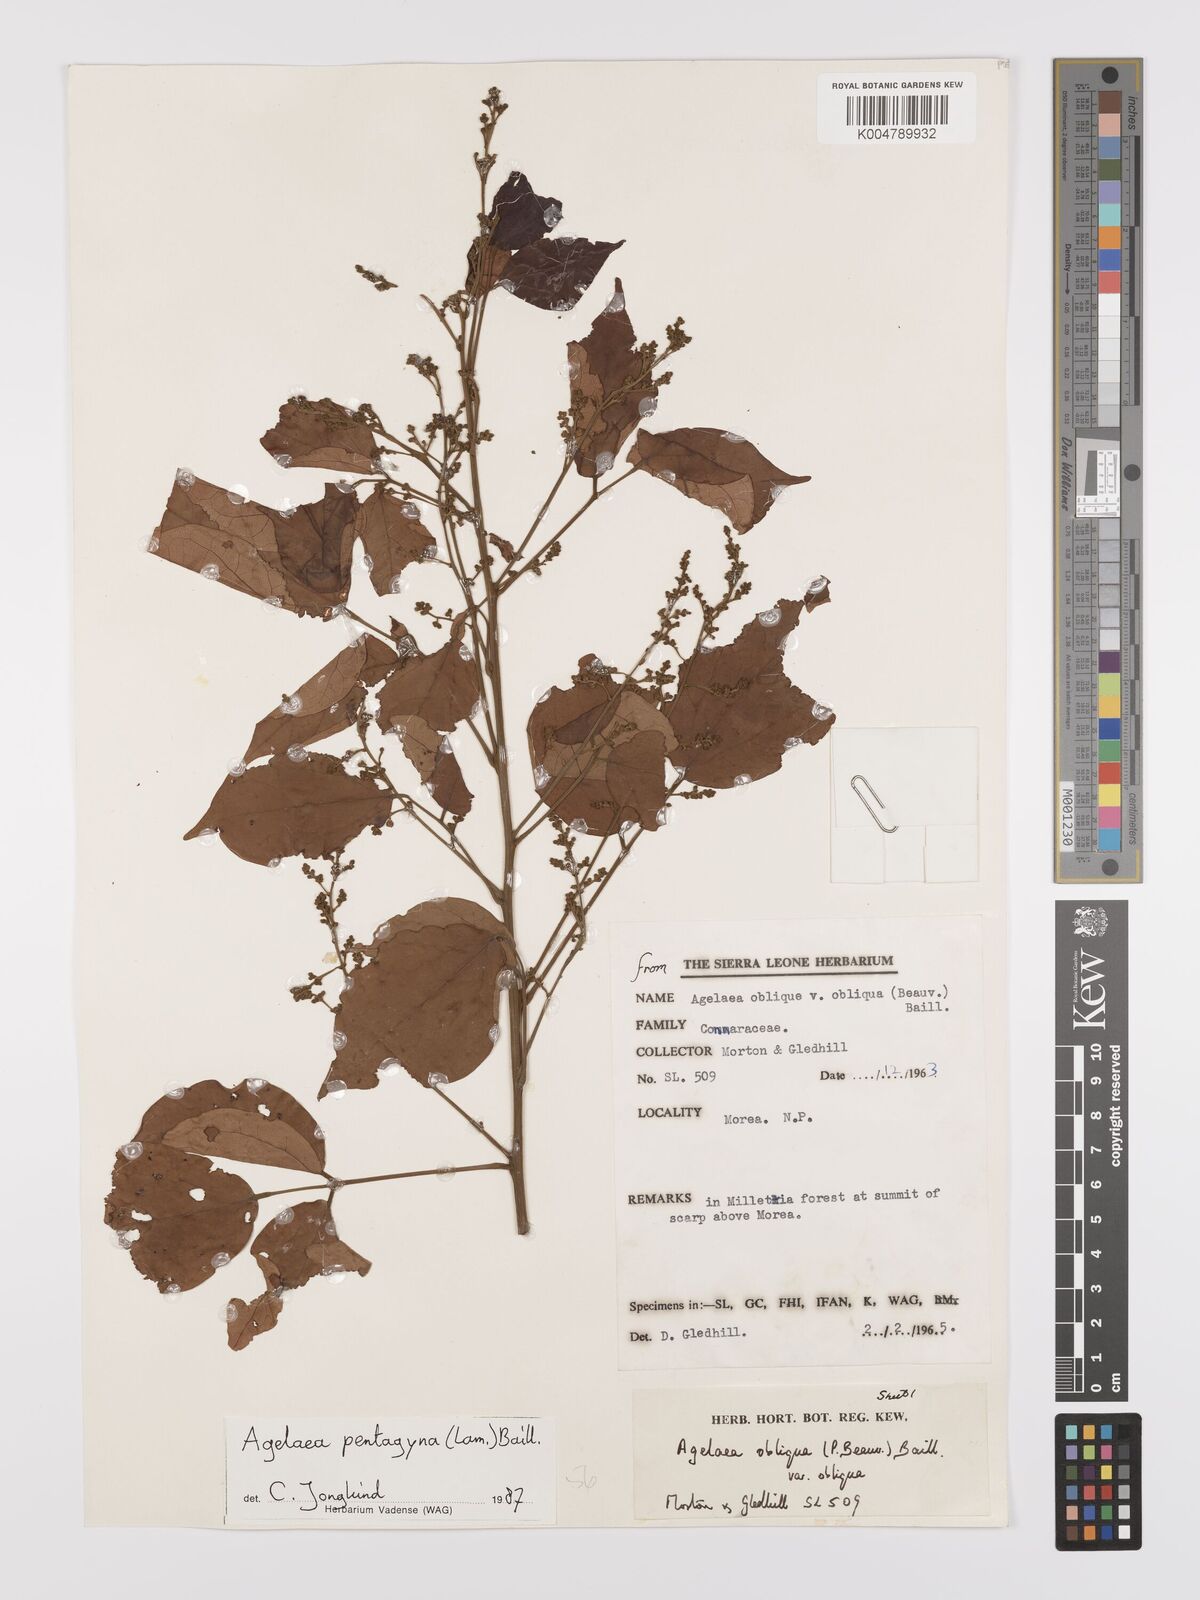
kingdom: Plantae
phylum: Tracheophyta
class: Magnoliopsida
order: Oxalidales
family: Connaraceae
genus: Agelaea
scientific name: Agelaea pentagyna
